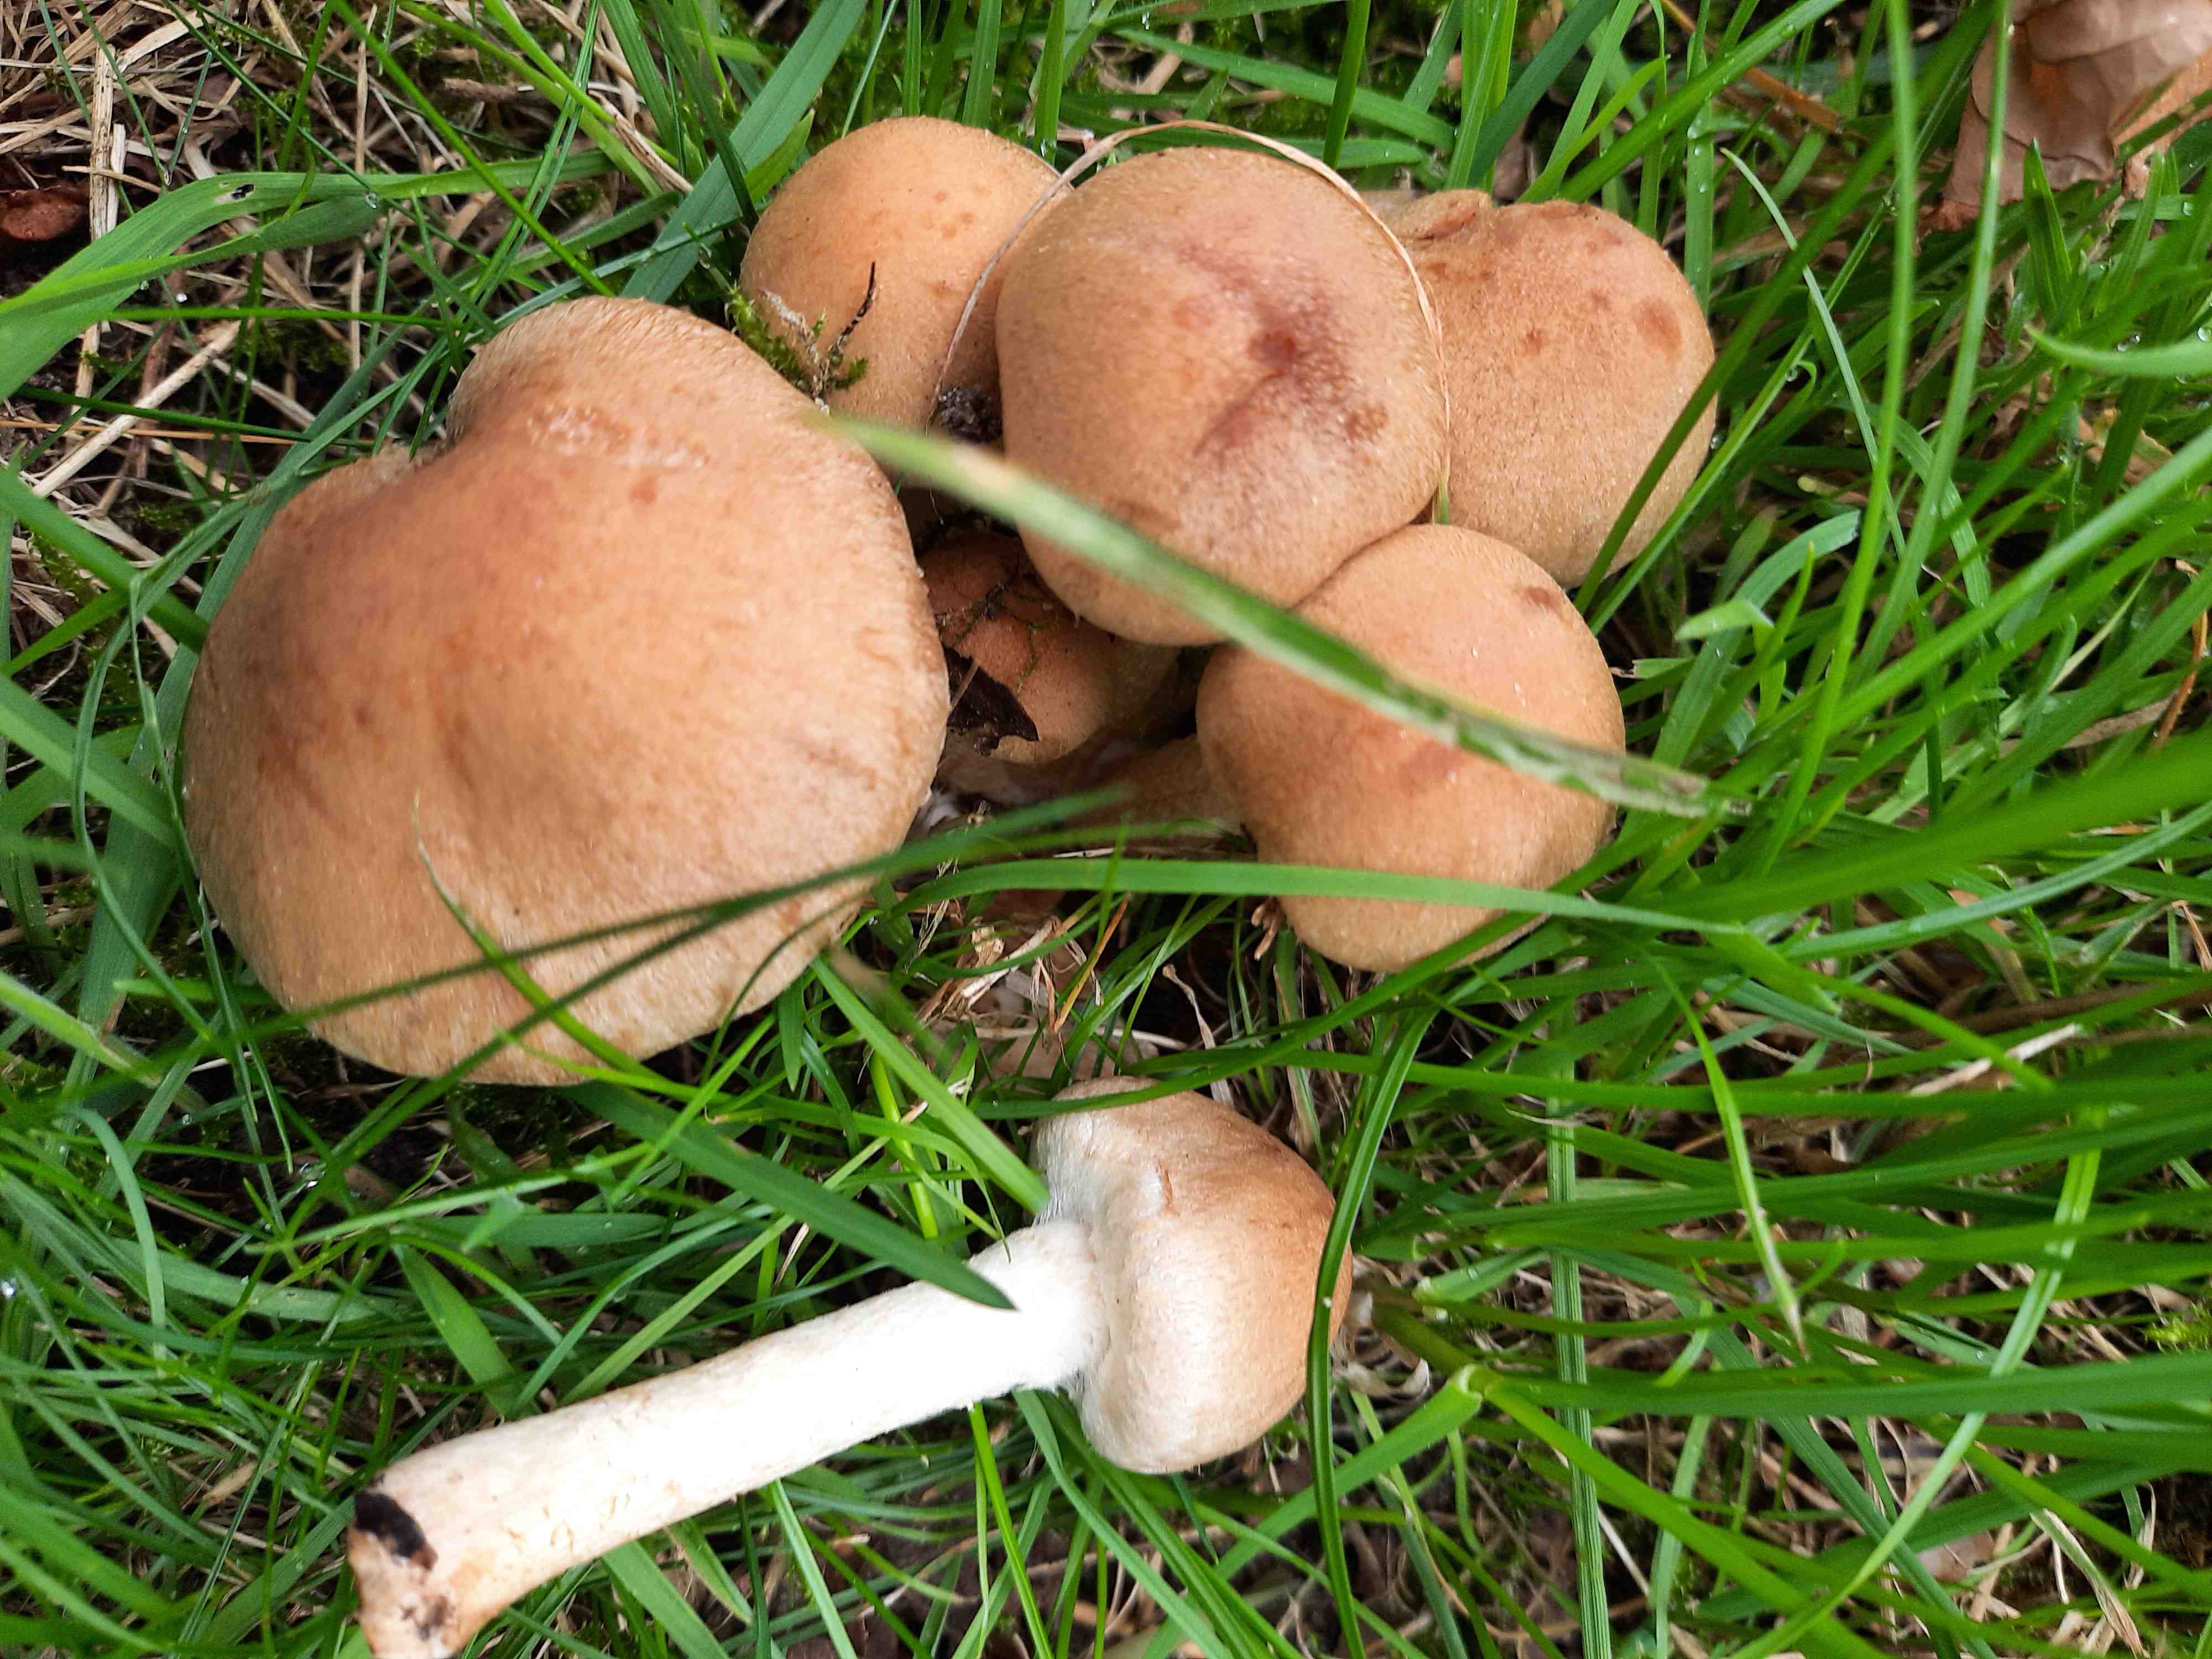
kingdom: Fungi
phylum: Basidiomycota
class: Agaricomycetes
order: Agaricales
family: Psathyrellaceae
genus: Lacrymaria
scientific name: Lacrymaria lacrymabunda
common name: grædende mørkhat
